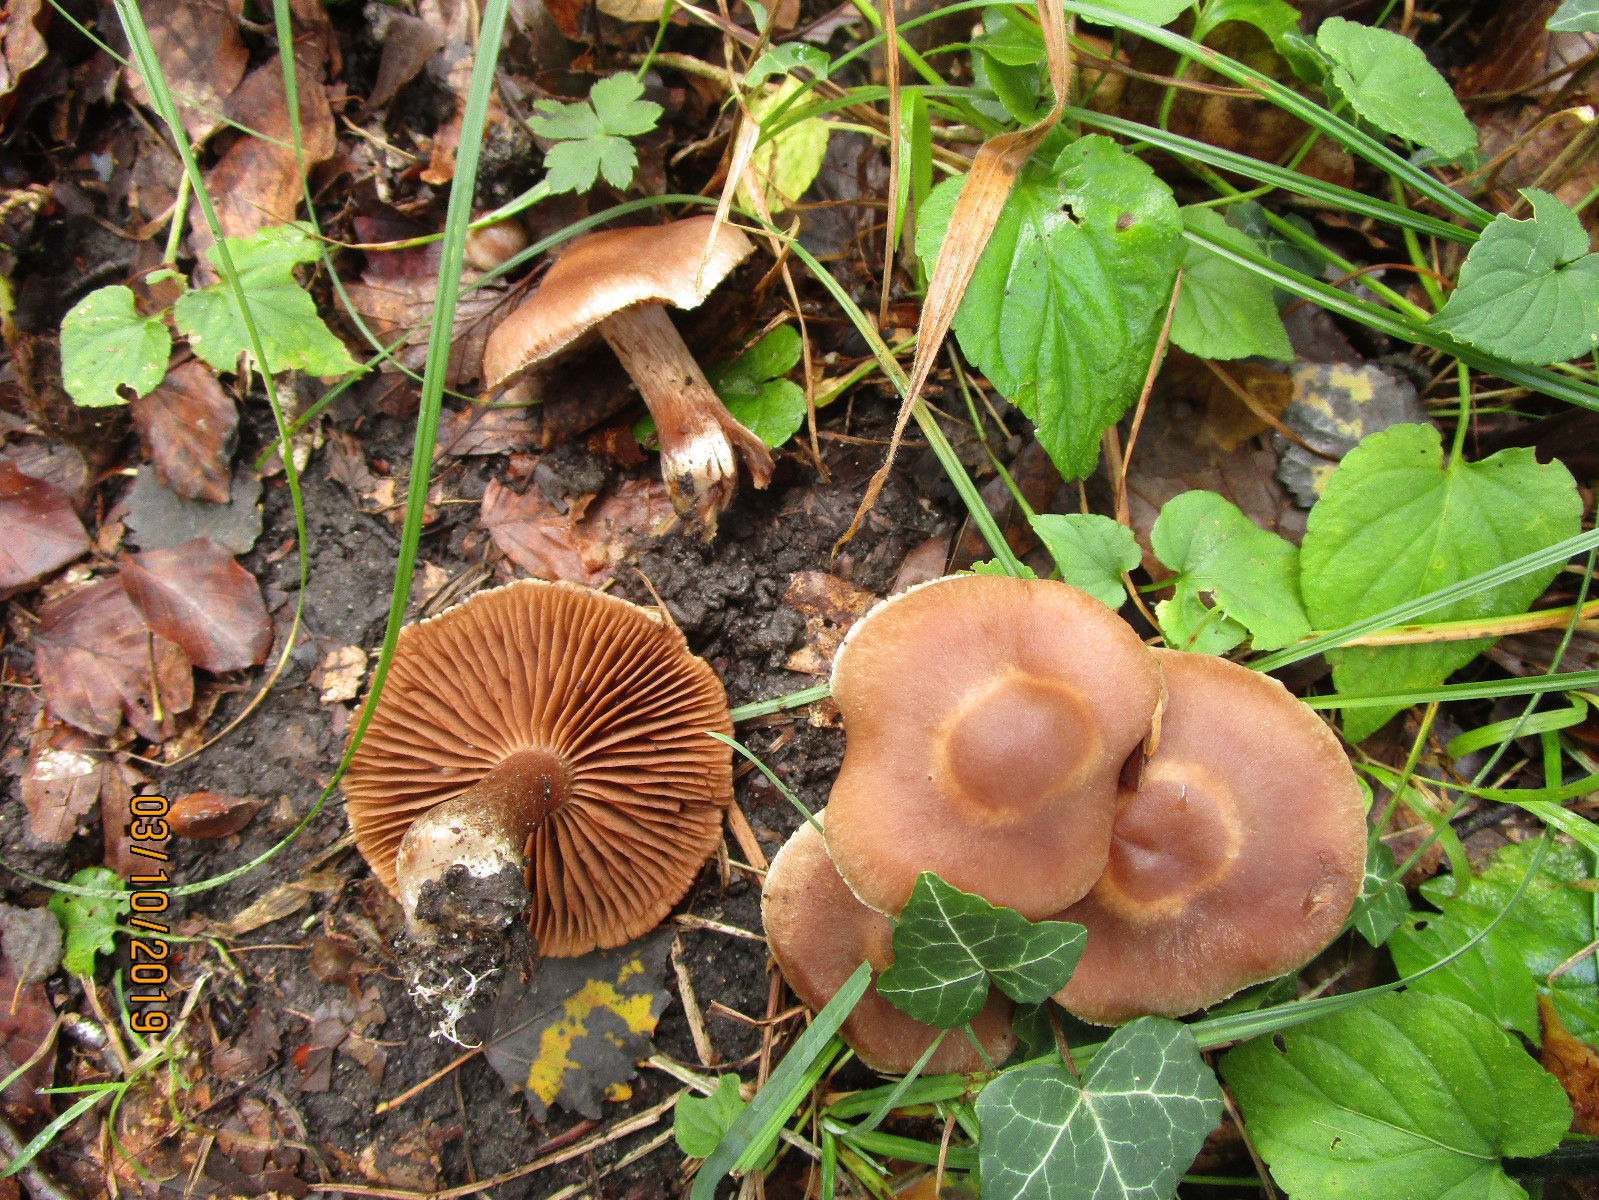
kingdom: Fungi
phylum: Basidiomycota
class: Agaricomycetes
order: Agaricales
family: Cortinariaceae
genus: Cortinarius
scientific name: Cortinarius
